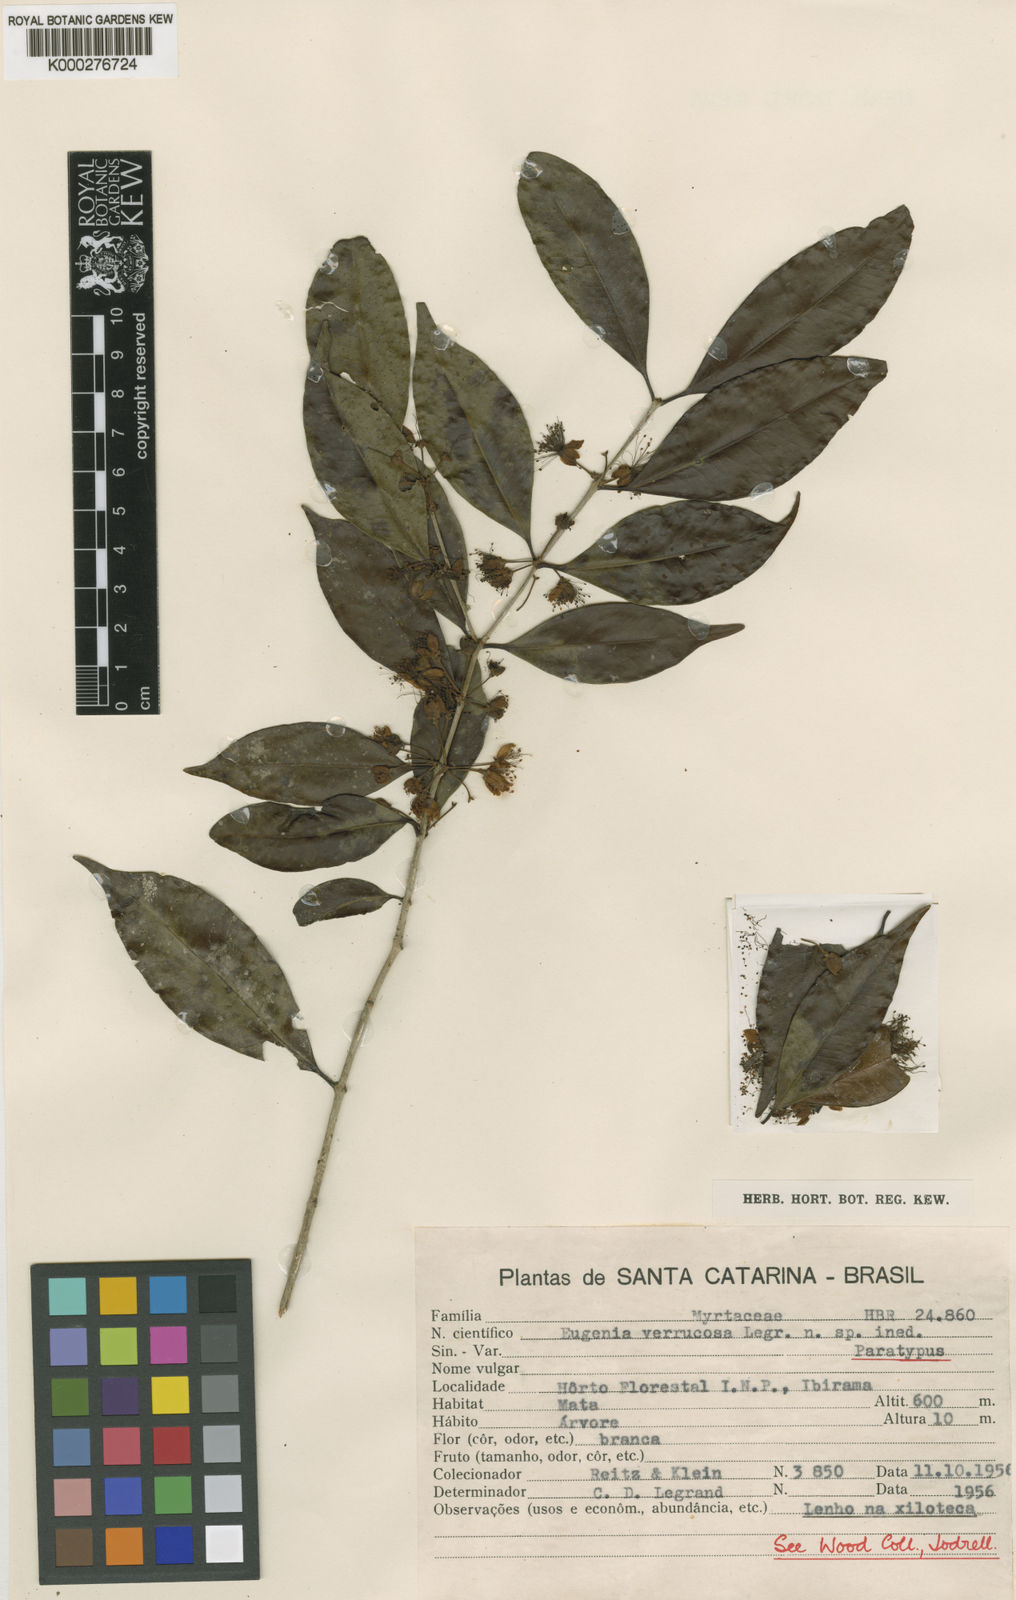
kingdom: Plantae
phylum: Tracheophyta
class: Magnoliopsida
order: Myrtales
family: Myrtaceae
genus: Eugenia
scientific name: Eugenia neoverrucosa
